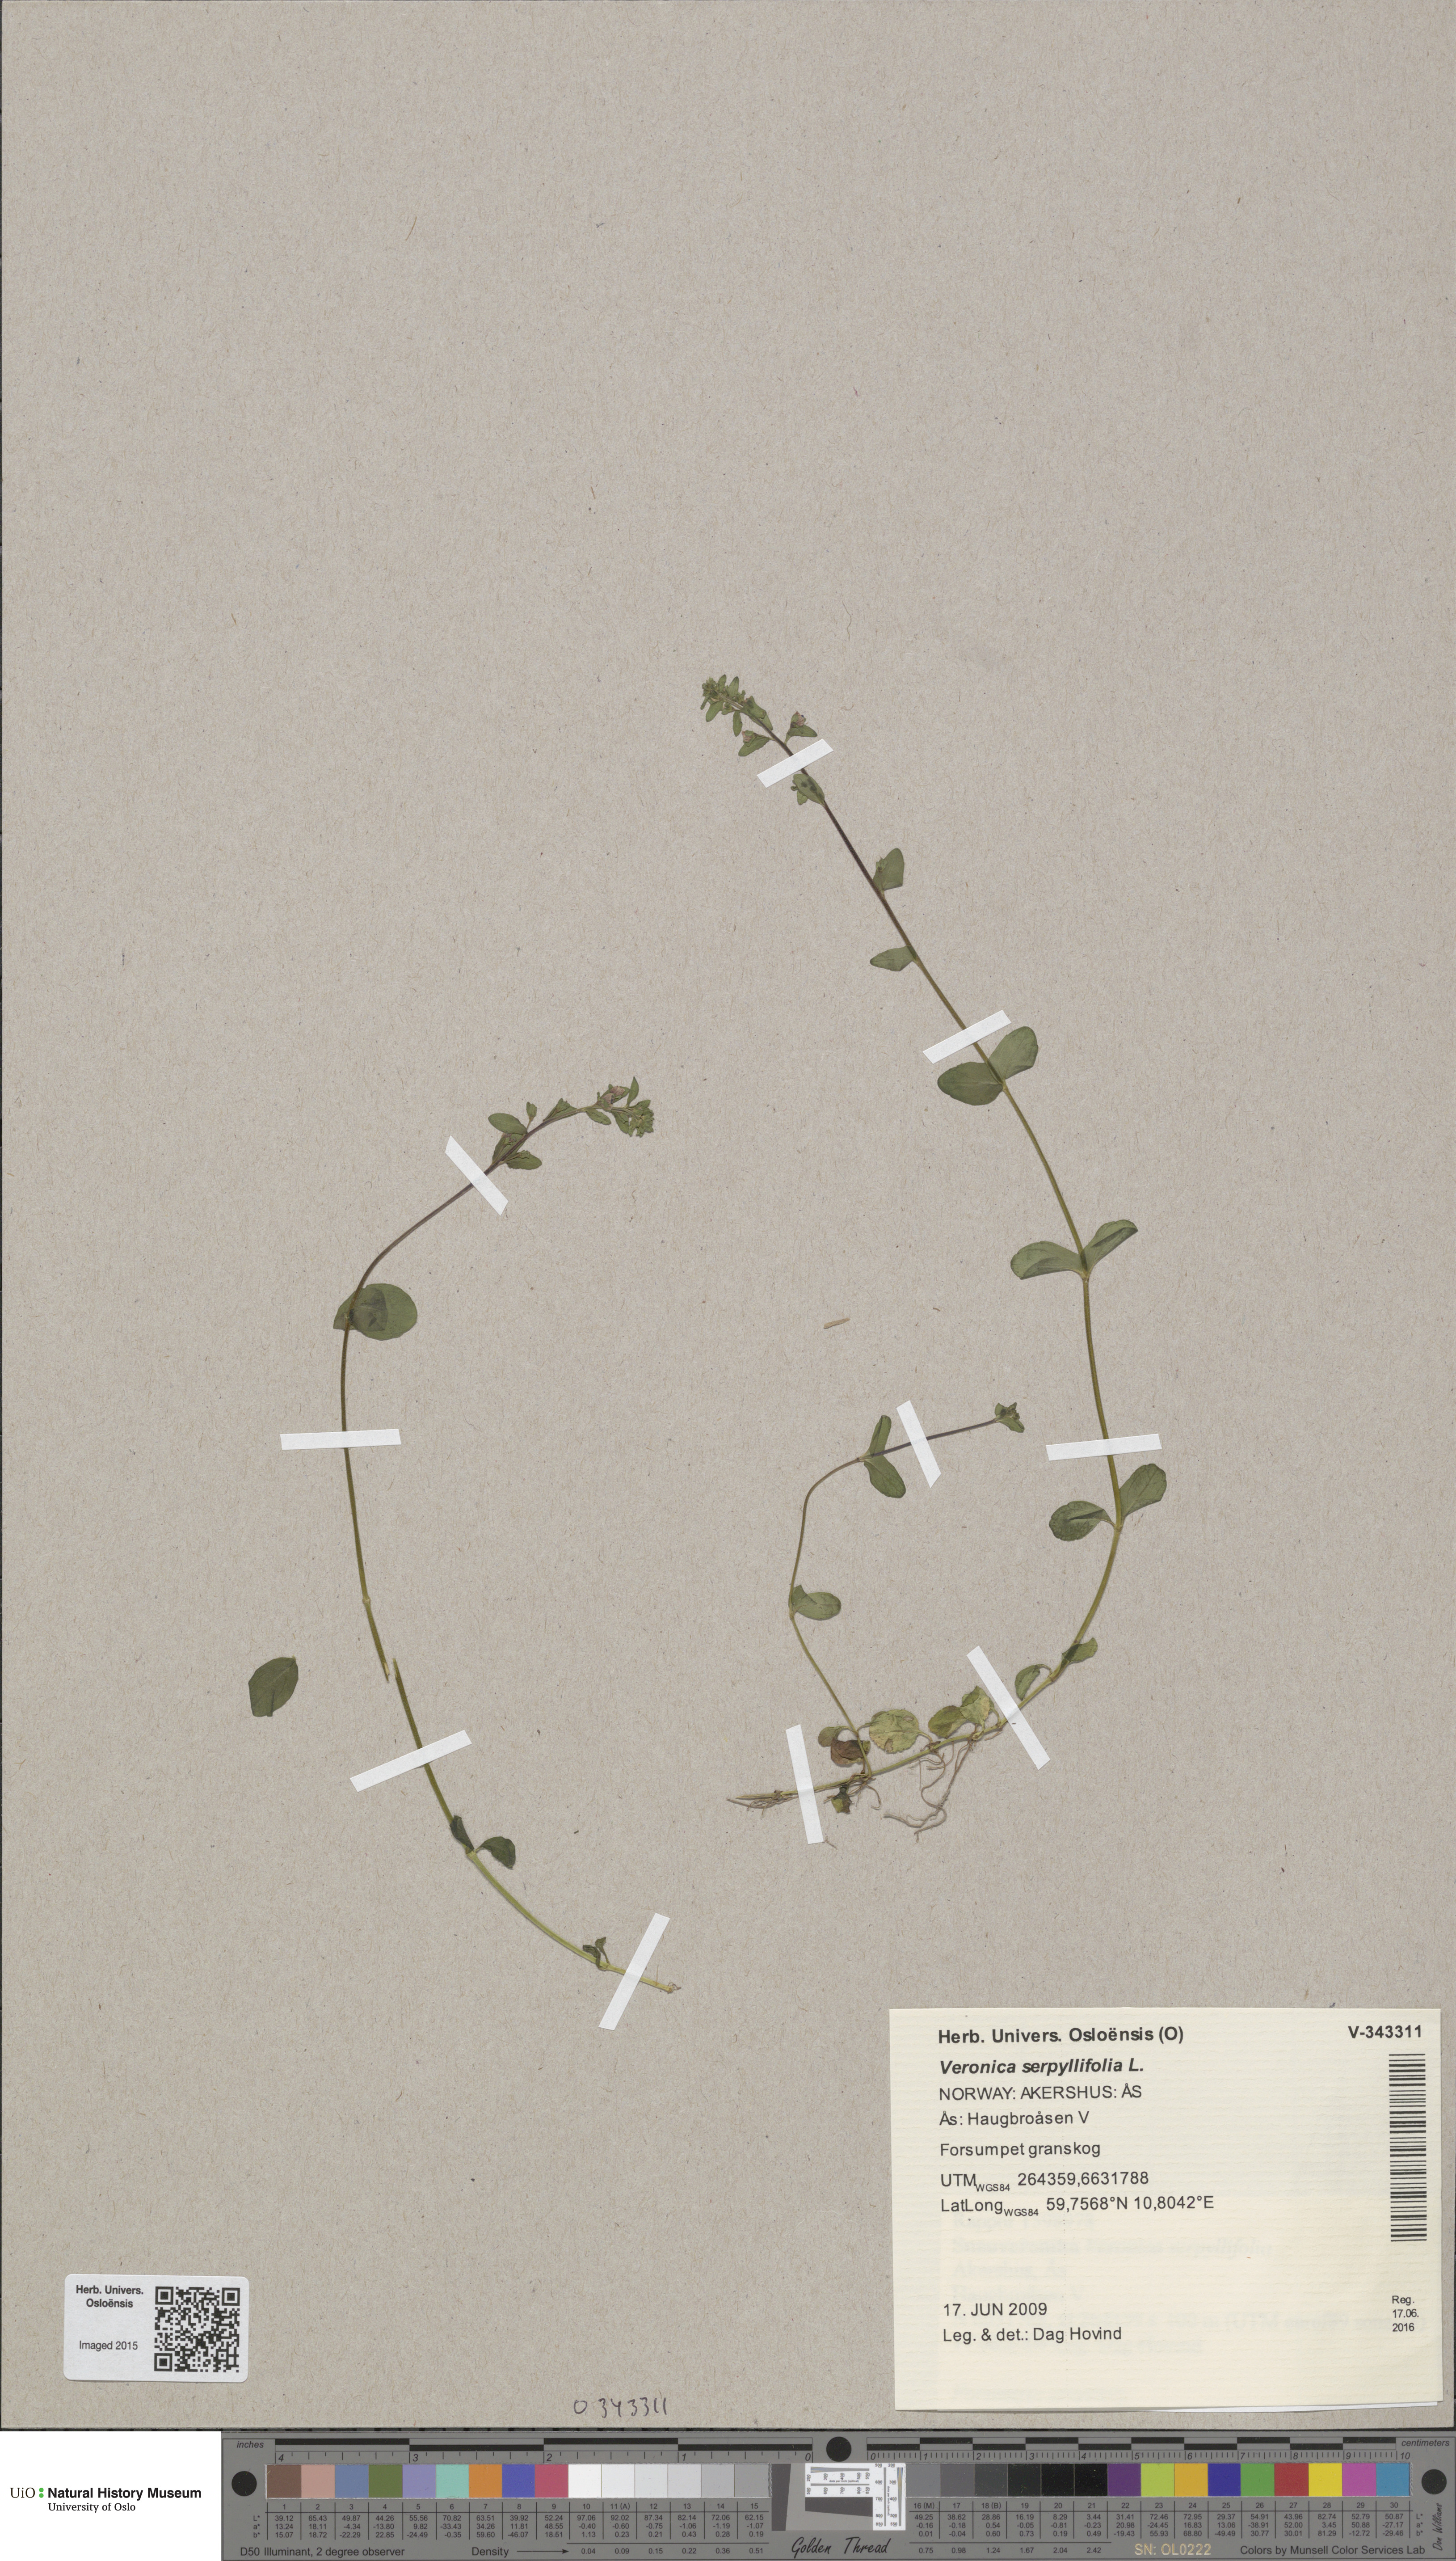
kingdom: Plantae
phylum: Tracheophyta
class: Magnoliopsida
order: Lamiales
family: Plantaginaceae
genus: Veronica
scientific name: Veronica serpyllifolia
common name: Thyme-leaved speedwell
